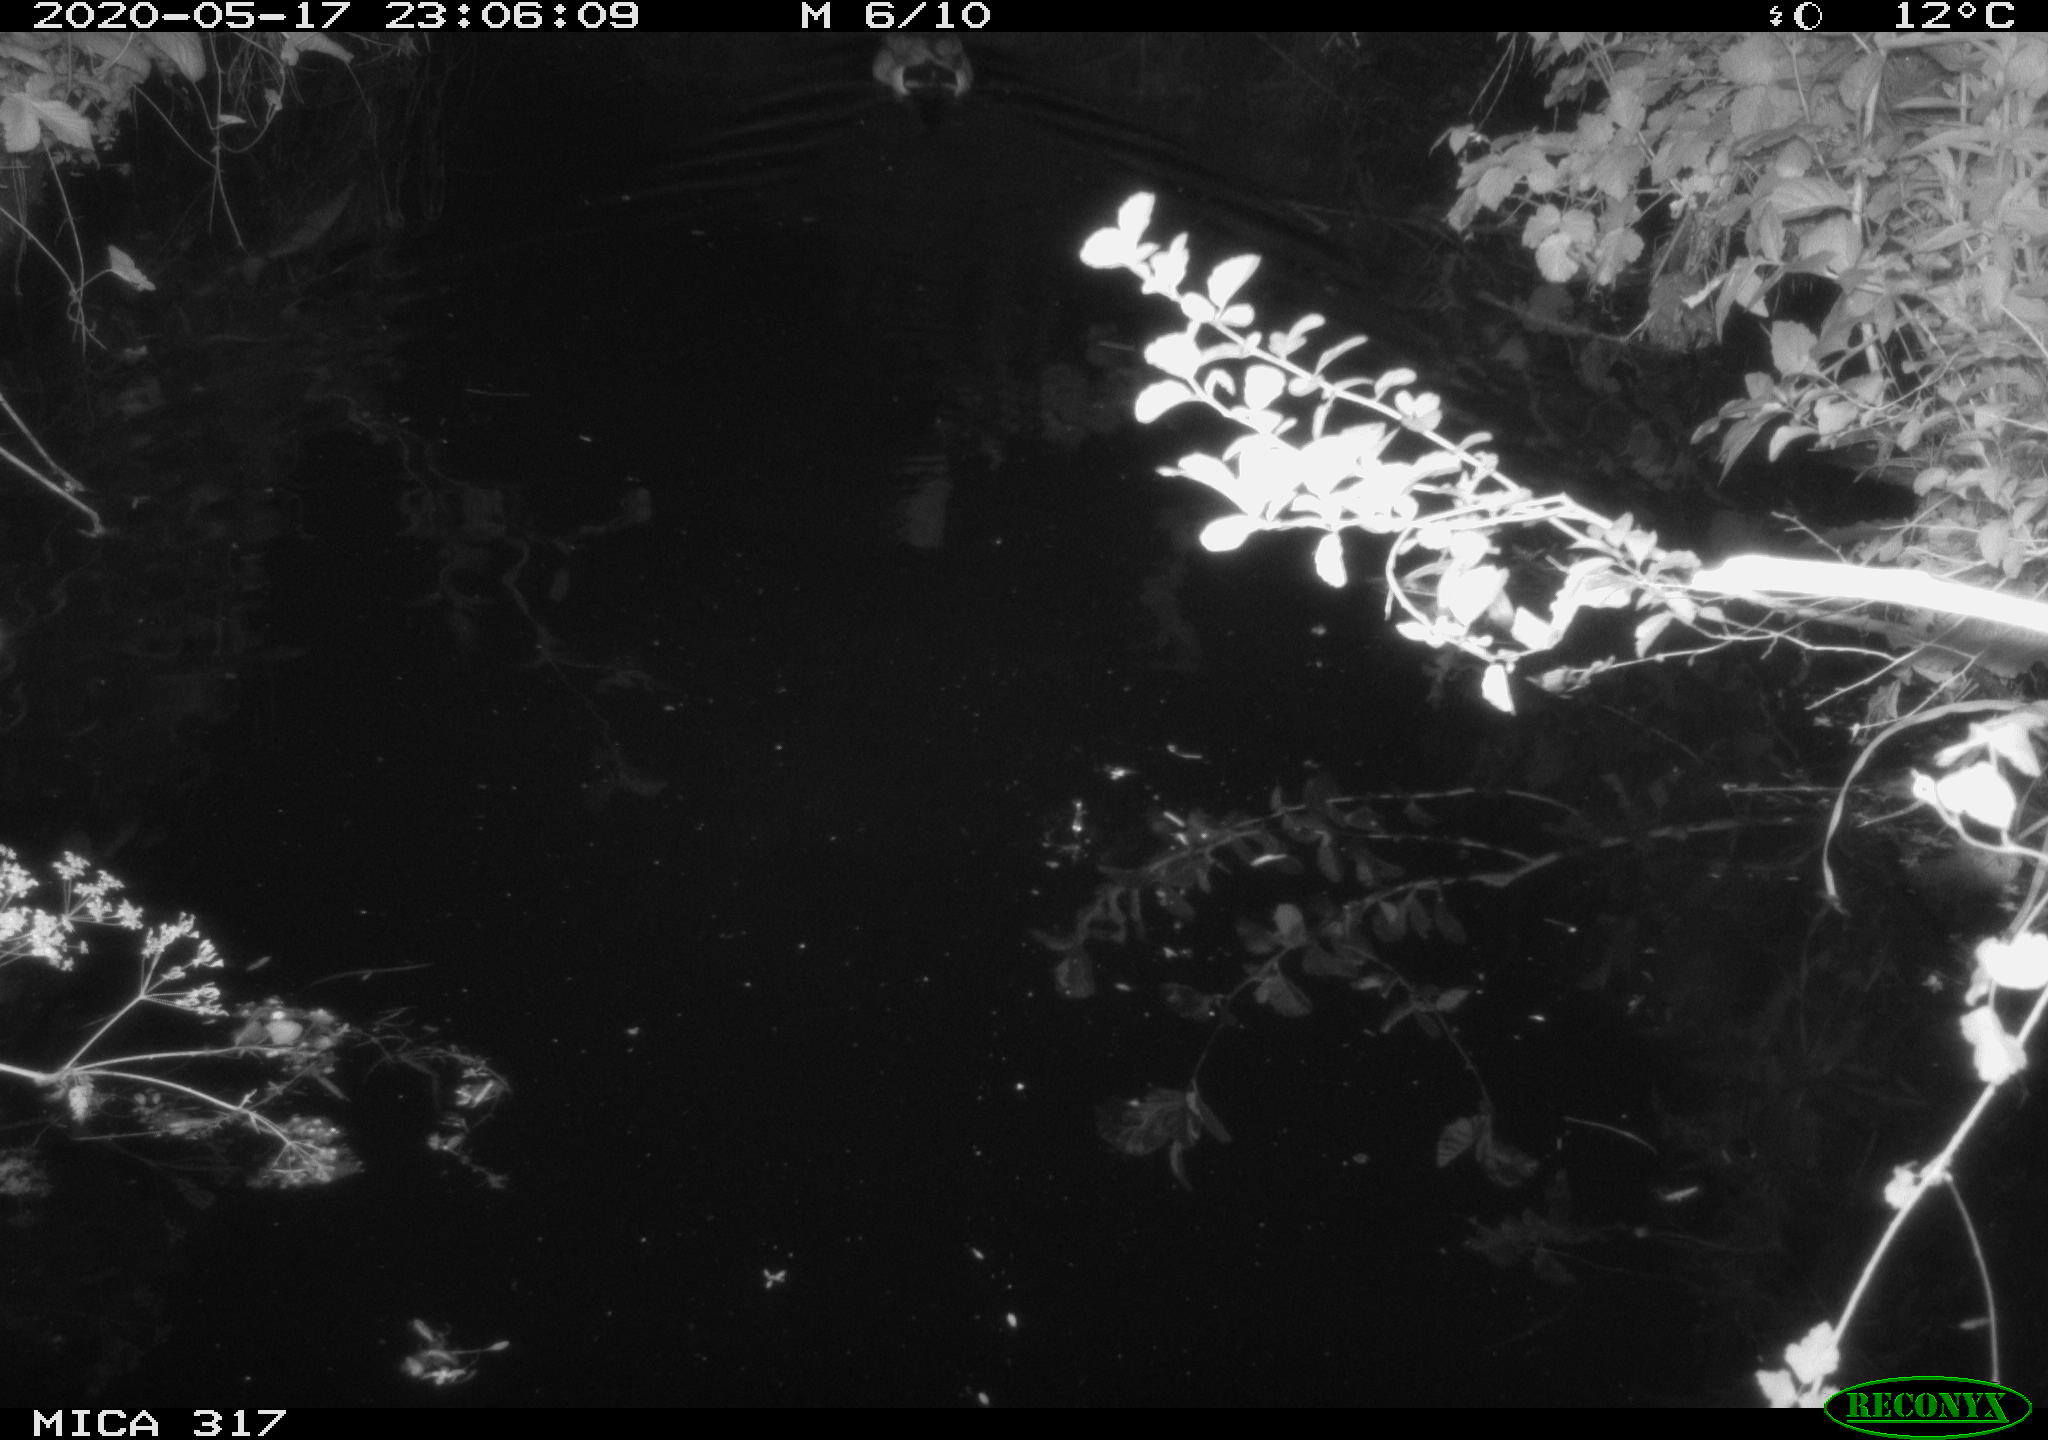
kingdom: Animalia
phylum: Chordata
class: Aves
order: Anseriformes
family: Anatidae
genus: Anas
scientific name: Anas platyrhynchos
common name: Mallard
